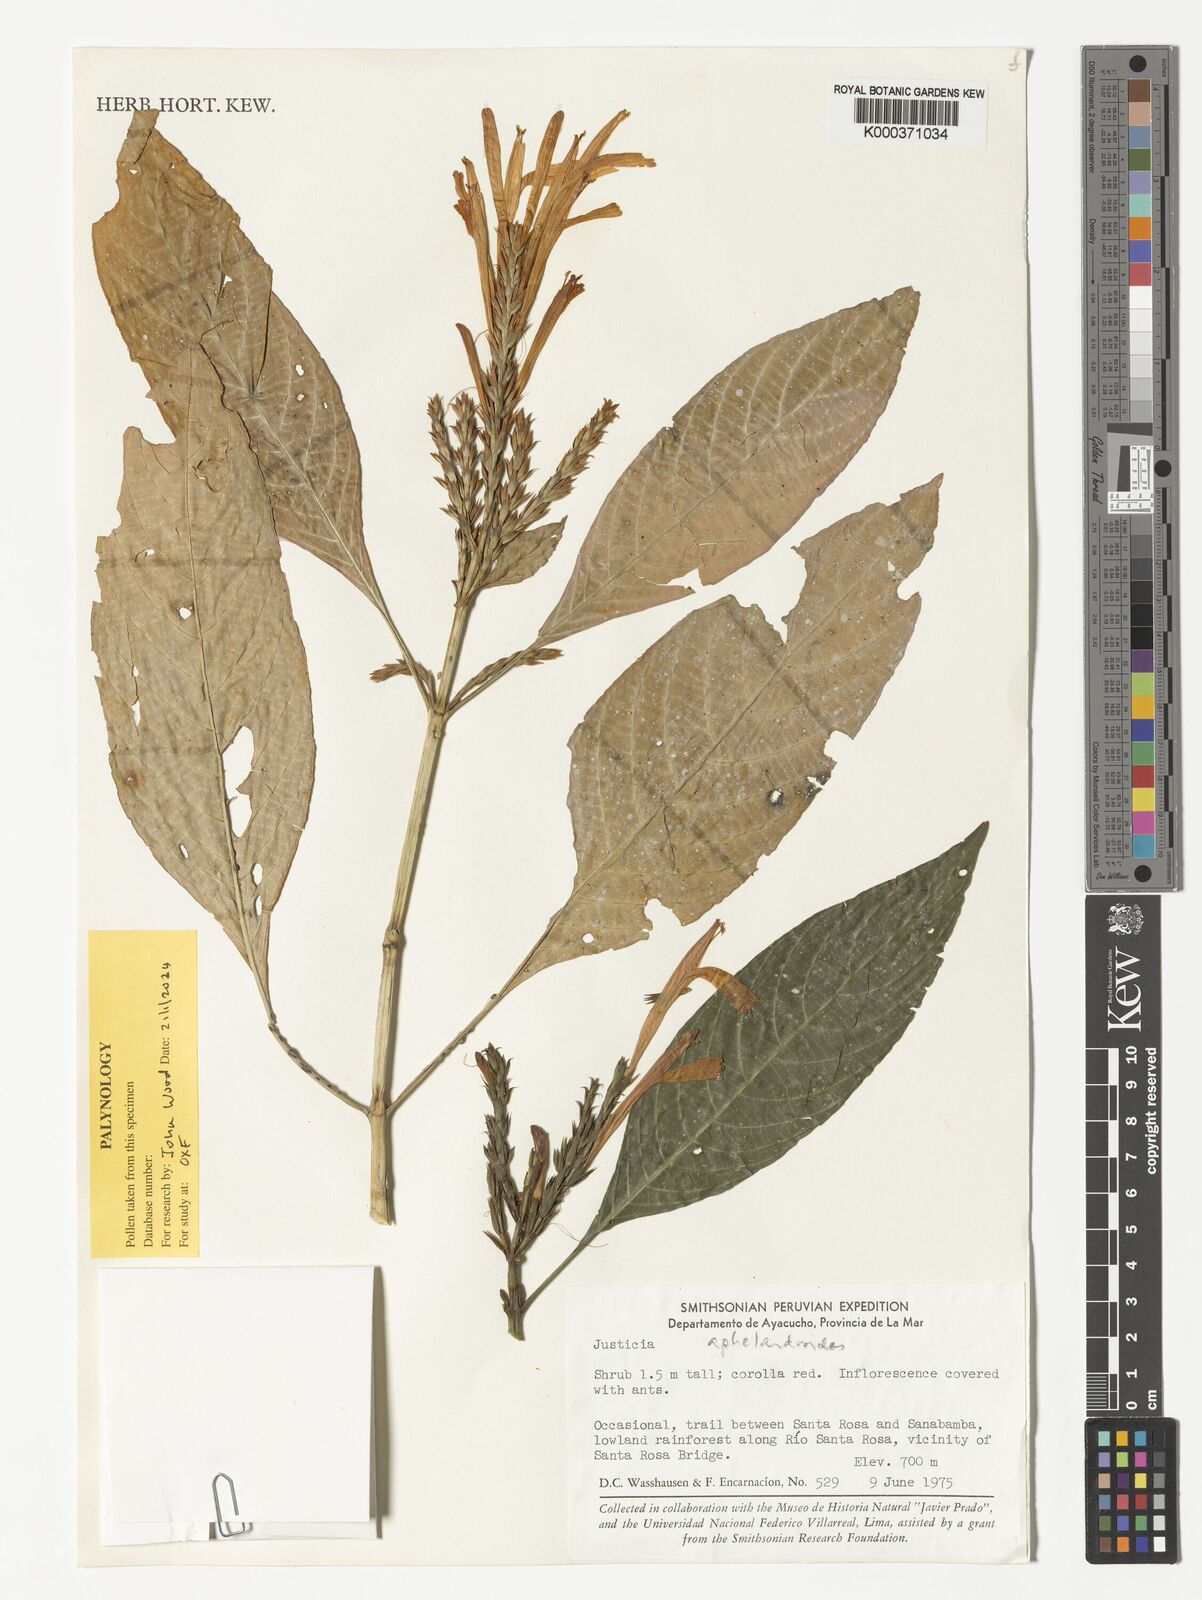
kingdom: Plantae
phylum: Tracheophyta
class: Magnoliopsida
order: Lamiales
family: Acanthaceae
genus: Justicia
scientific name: Justicia aphelandroides
